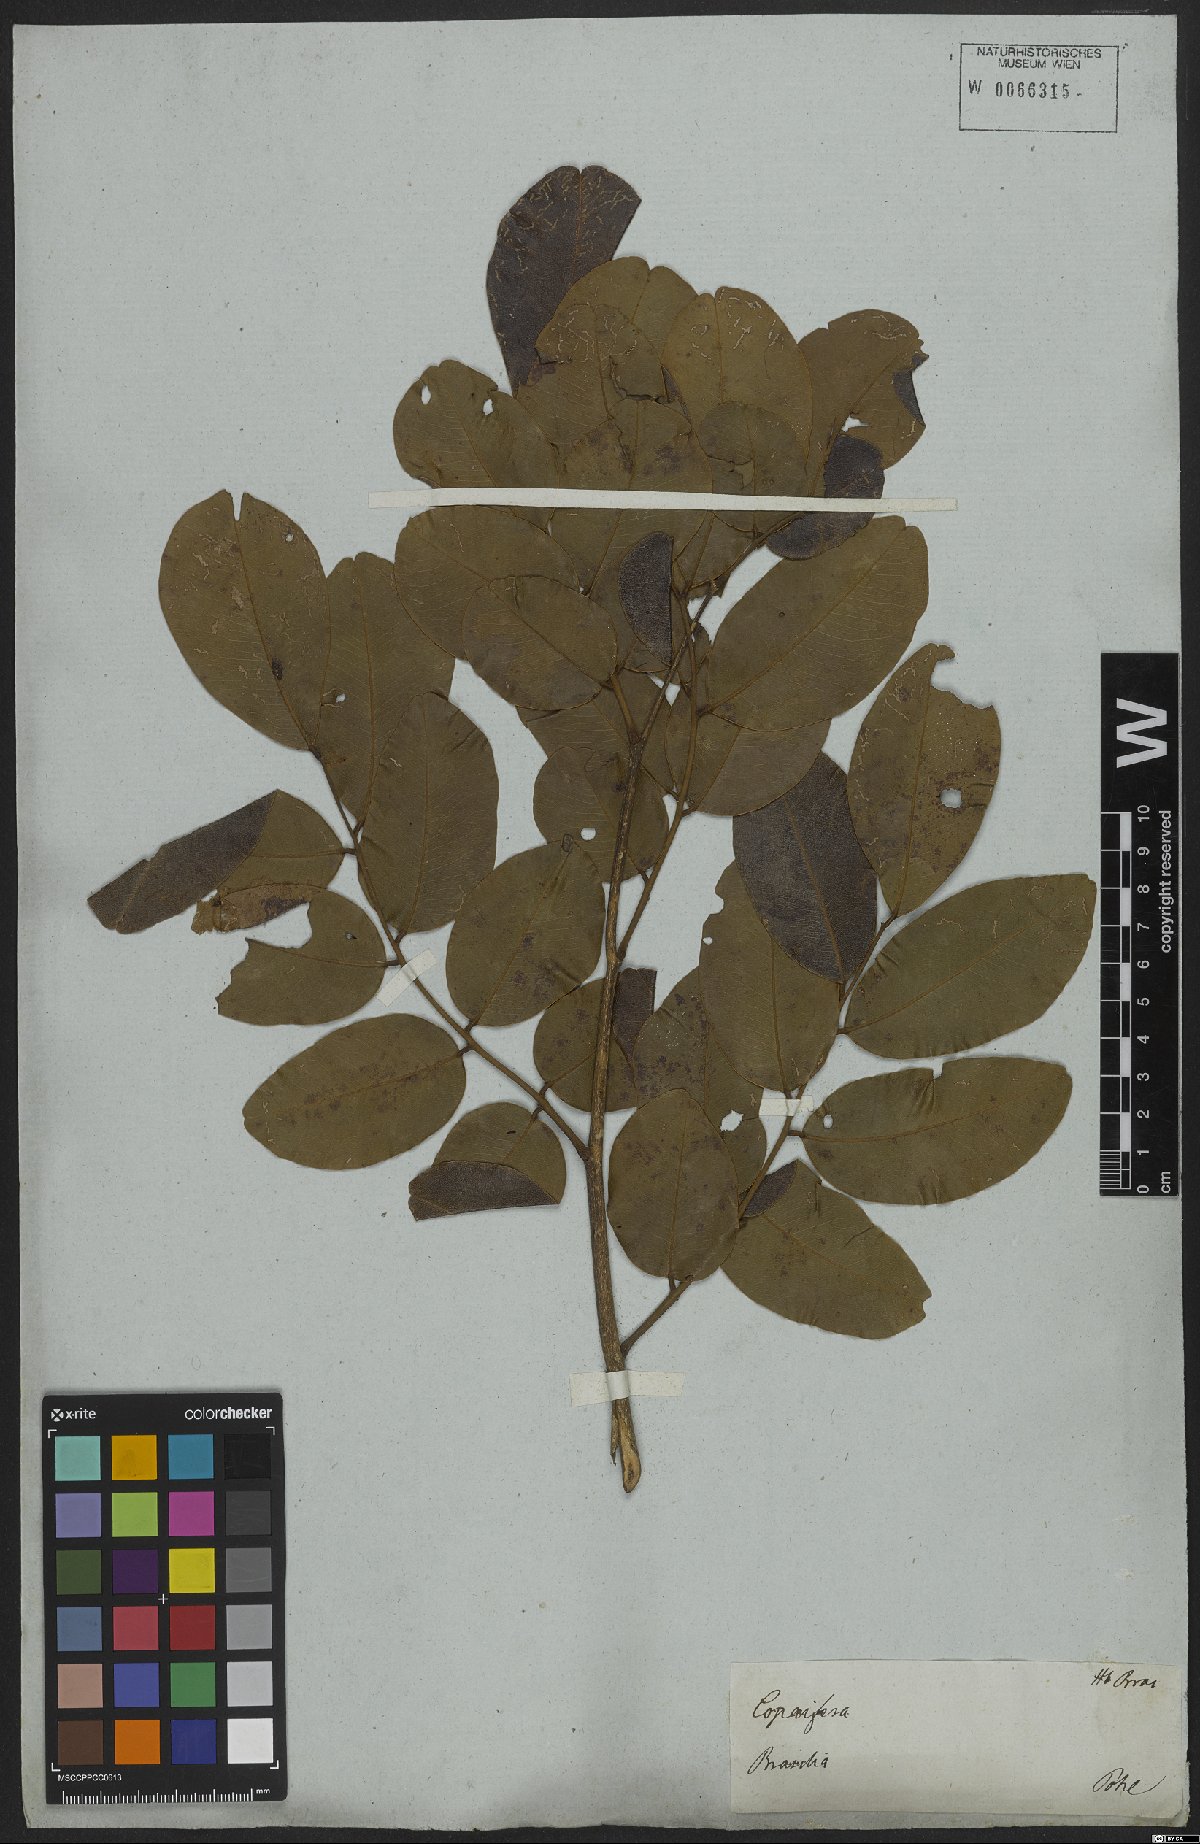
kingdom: Plantae
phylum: Tracheophyta
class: Magnoliopsida
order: Fabales
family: Fabaceae
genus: Copaifera
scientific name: Copaifera
